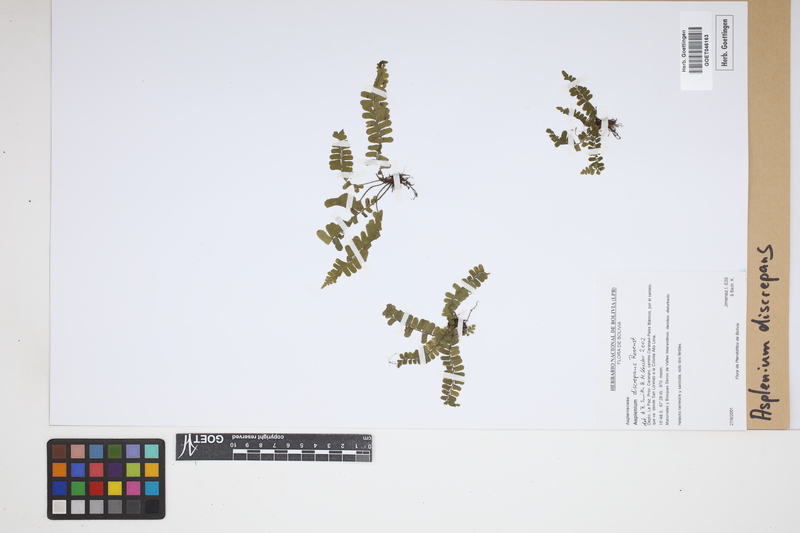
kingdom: Plantae
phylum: Tracheophyta
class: Polypodiopsida
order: Polypodiales
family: Aspleniaceae
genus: Asplenium
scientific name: Asplenium discrepans
